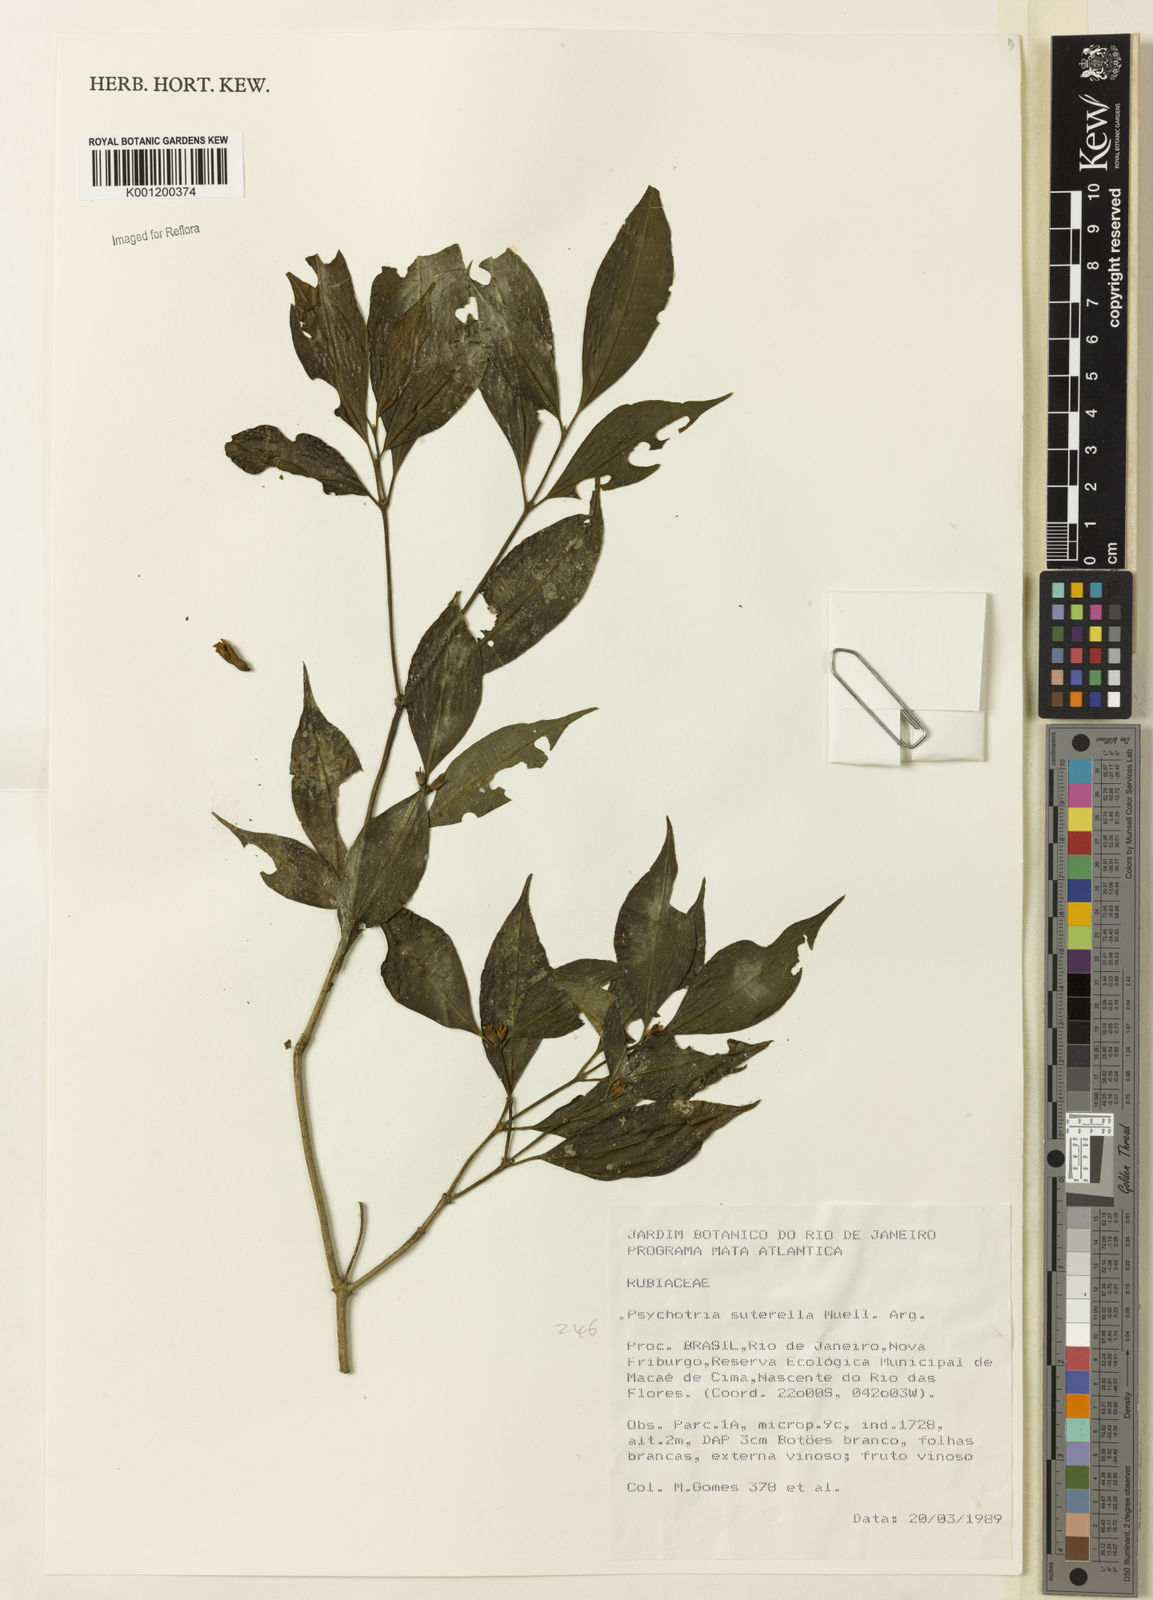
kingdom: Plantae
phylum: Tracheophyta
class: Magnoliopsida
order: Gentianales
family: Rubiaceae
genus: Psychotria
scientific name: Psychotria
